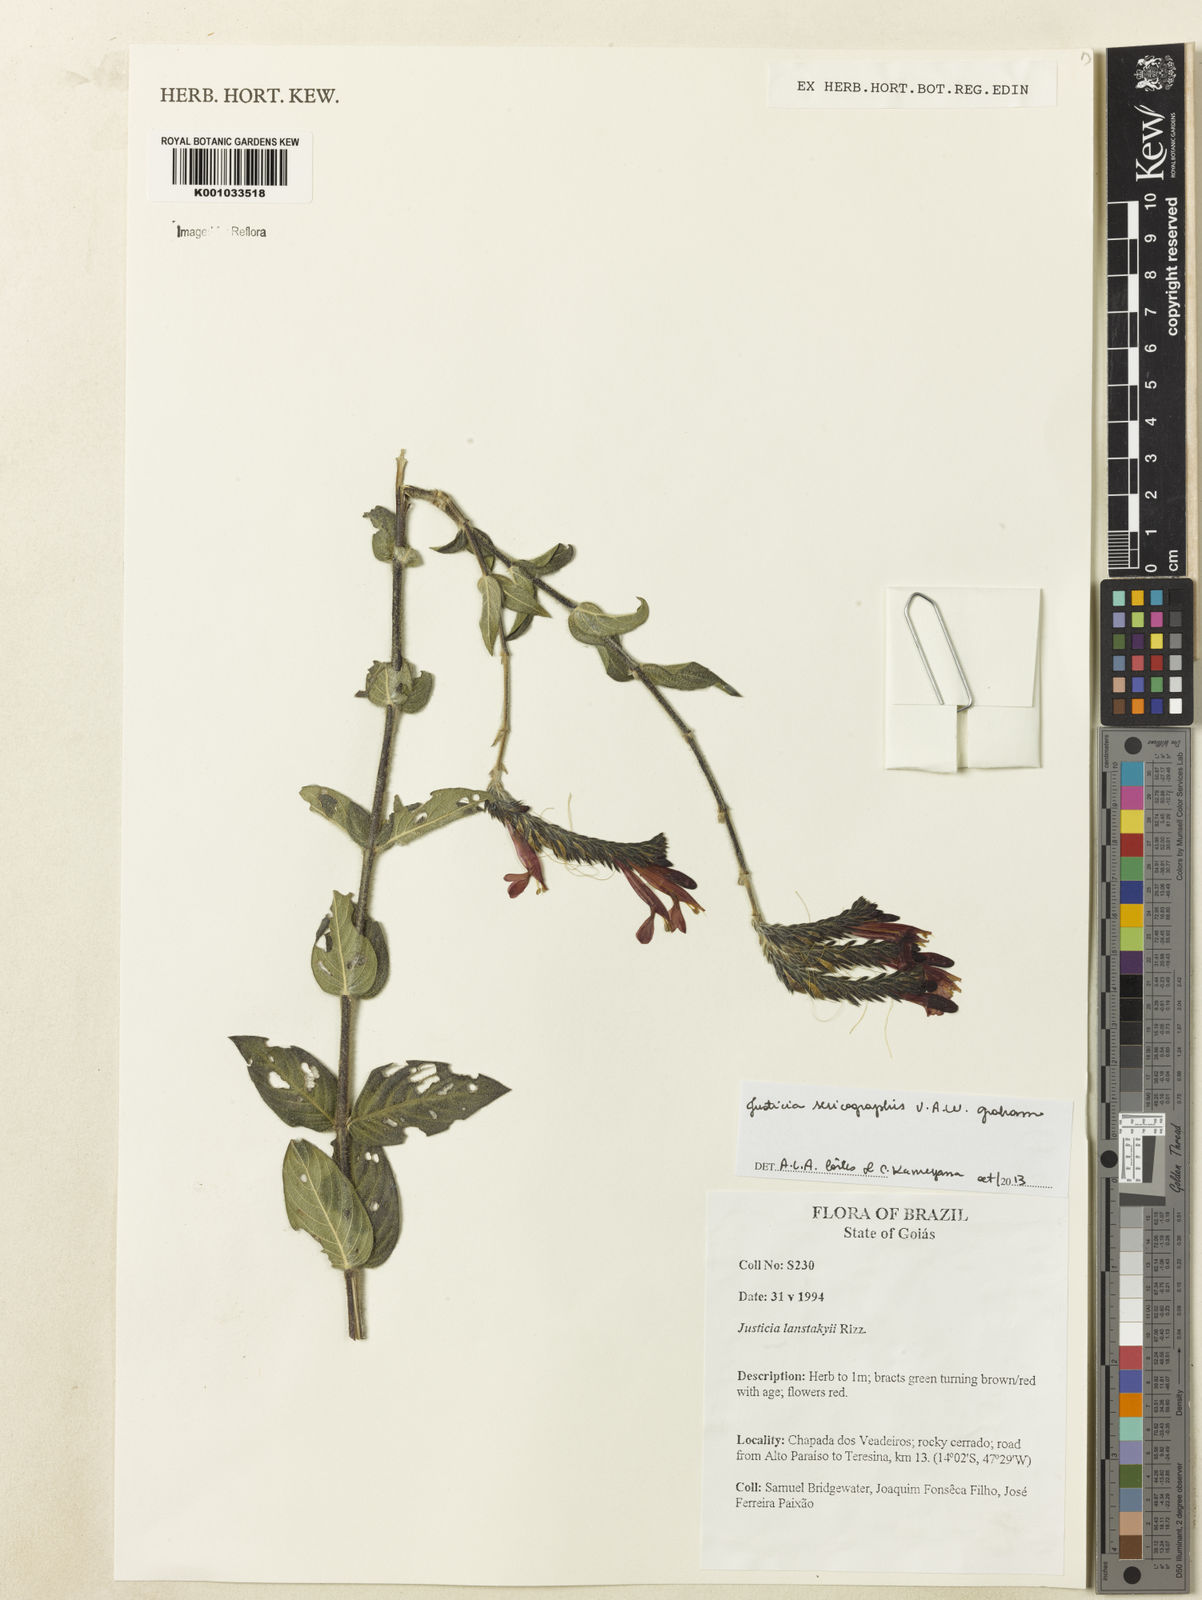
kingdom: Plantae
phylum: Tracheophyta
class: Magnoliopsida
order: Lamiales
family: Acanthaceae
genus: Dianthera
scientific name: Dianthera rigida
